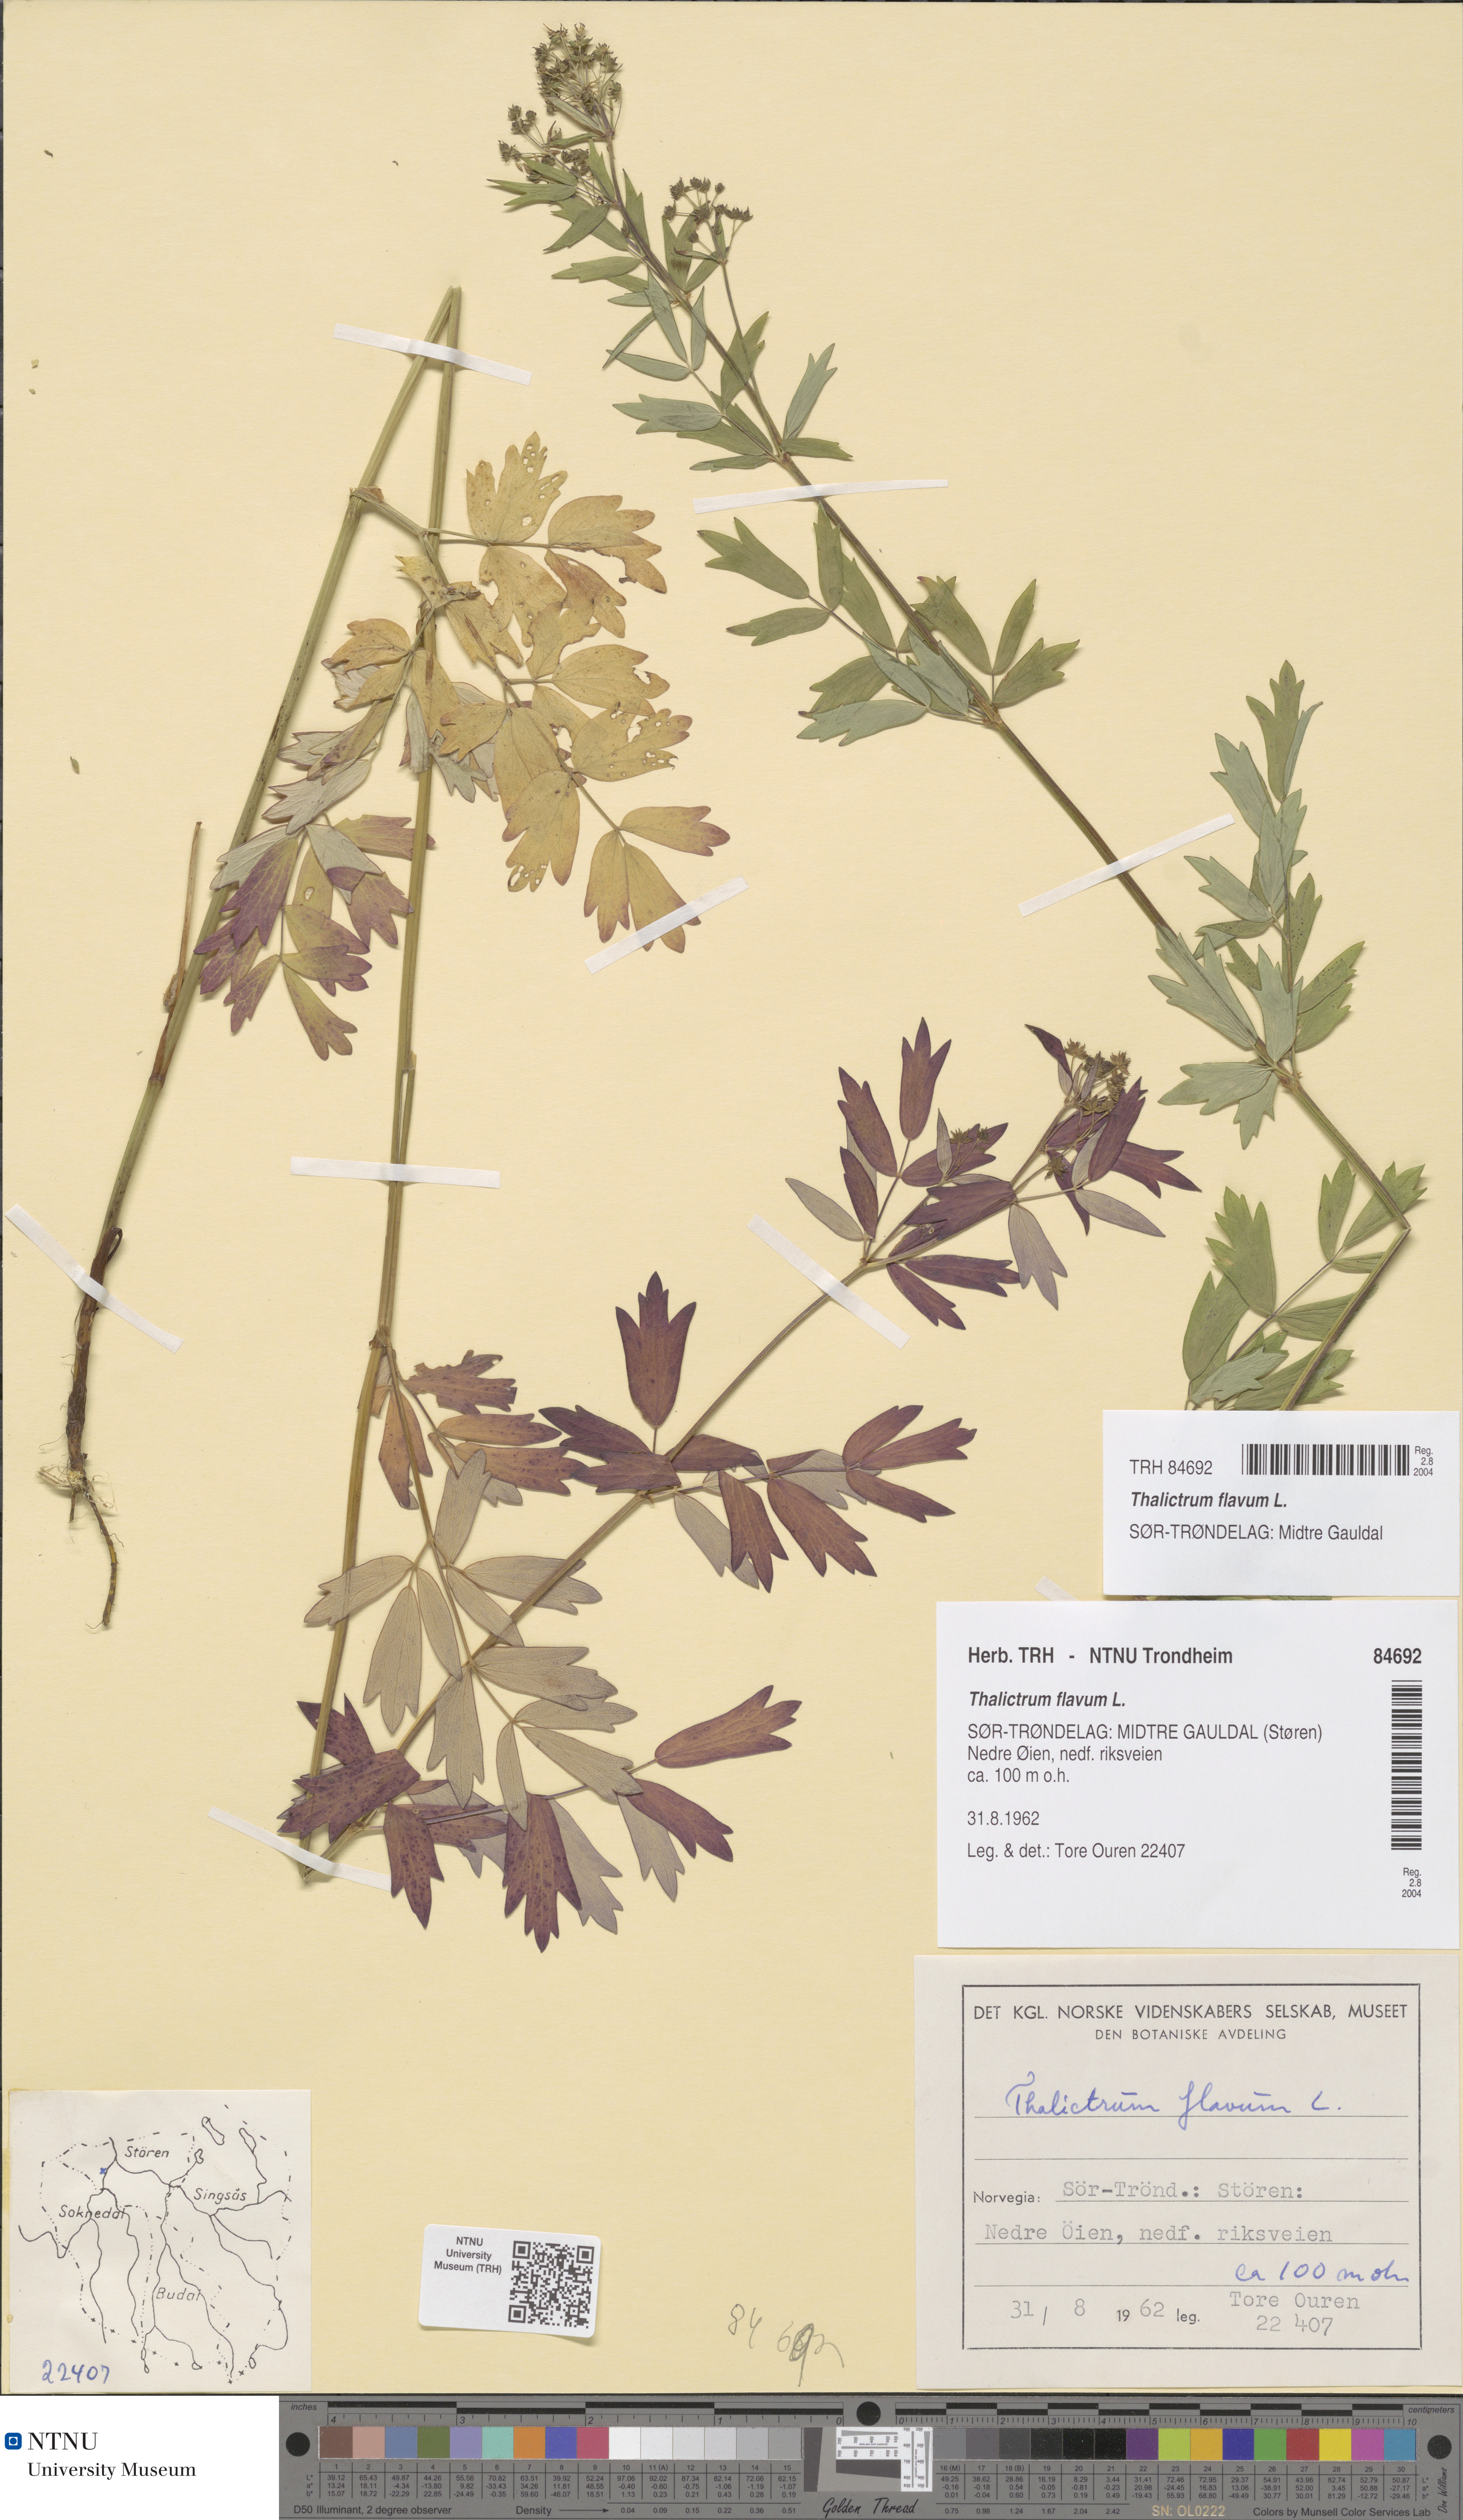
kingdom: Plantae
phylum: Tracheophyta
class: Magnoliopsida
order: Ranunculales
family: Ranunculaceae
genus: Thalictrum
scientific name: Thalictrum flavum
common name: Common meadow-rue
